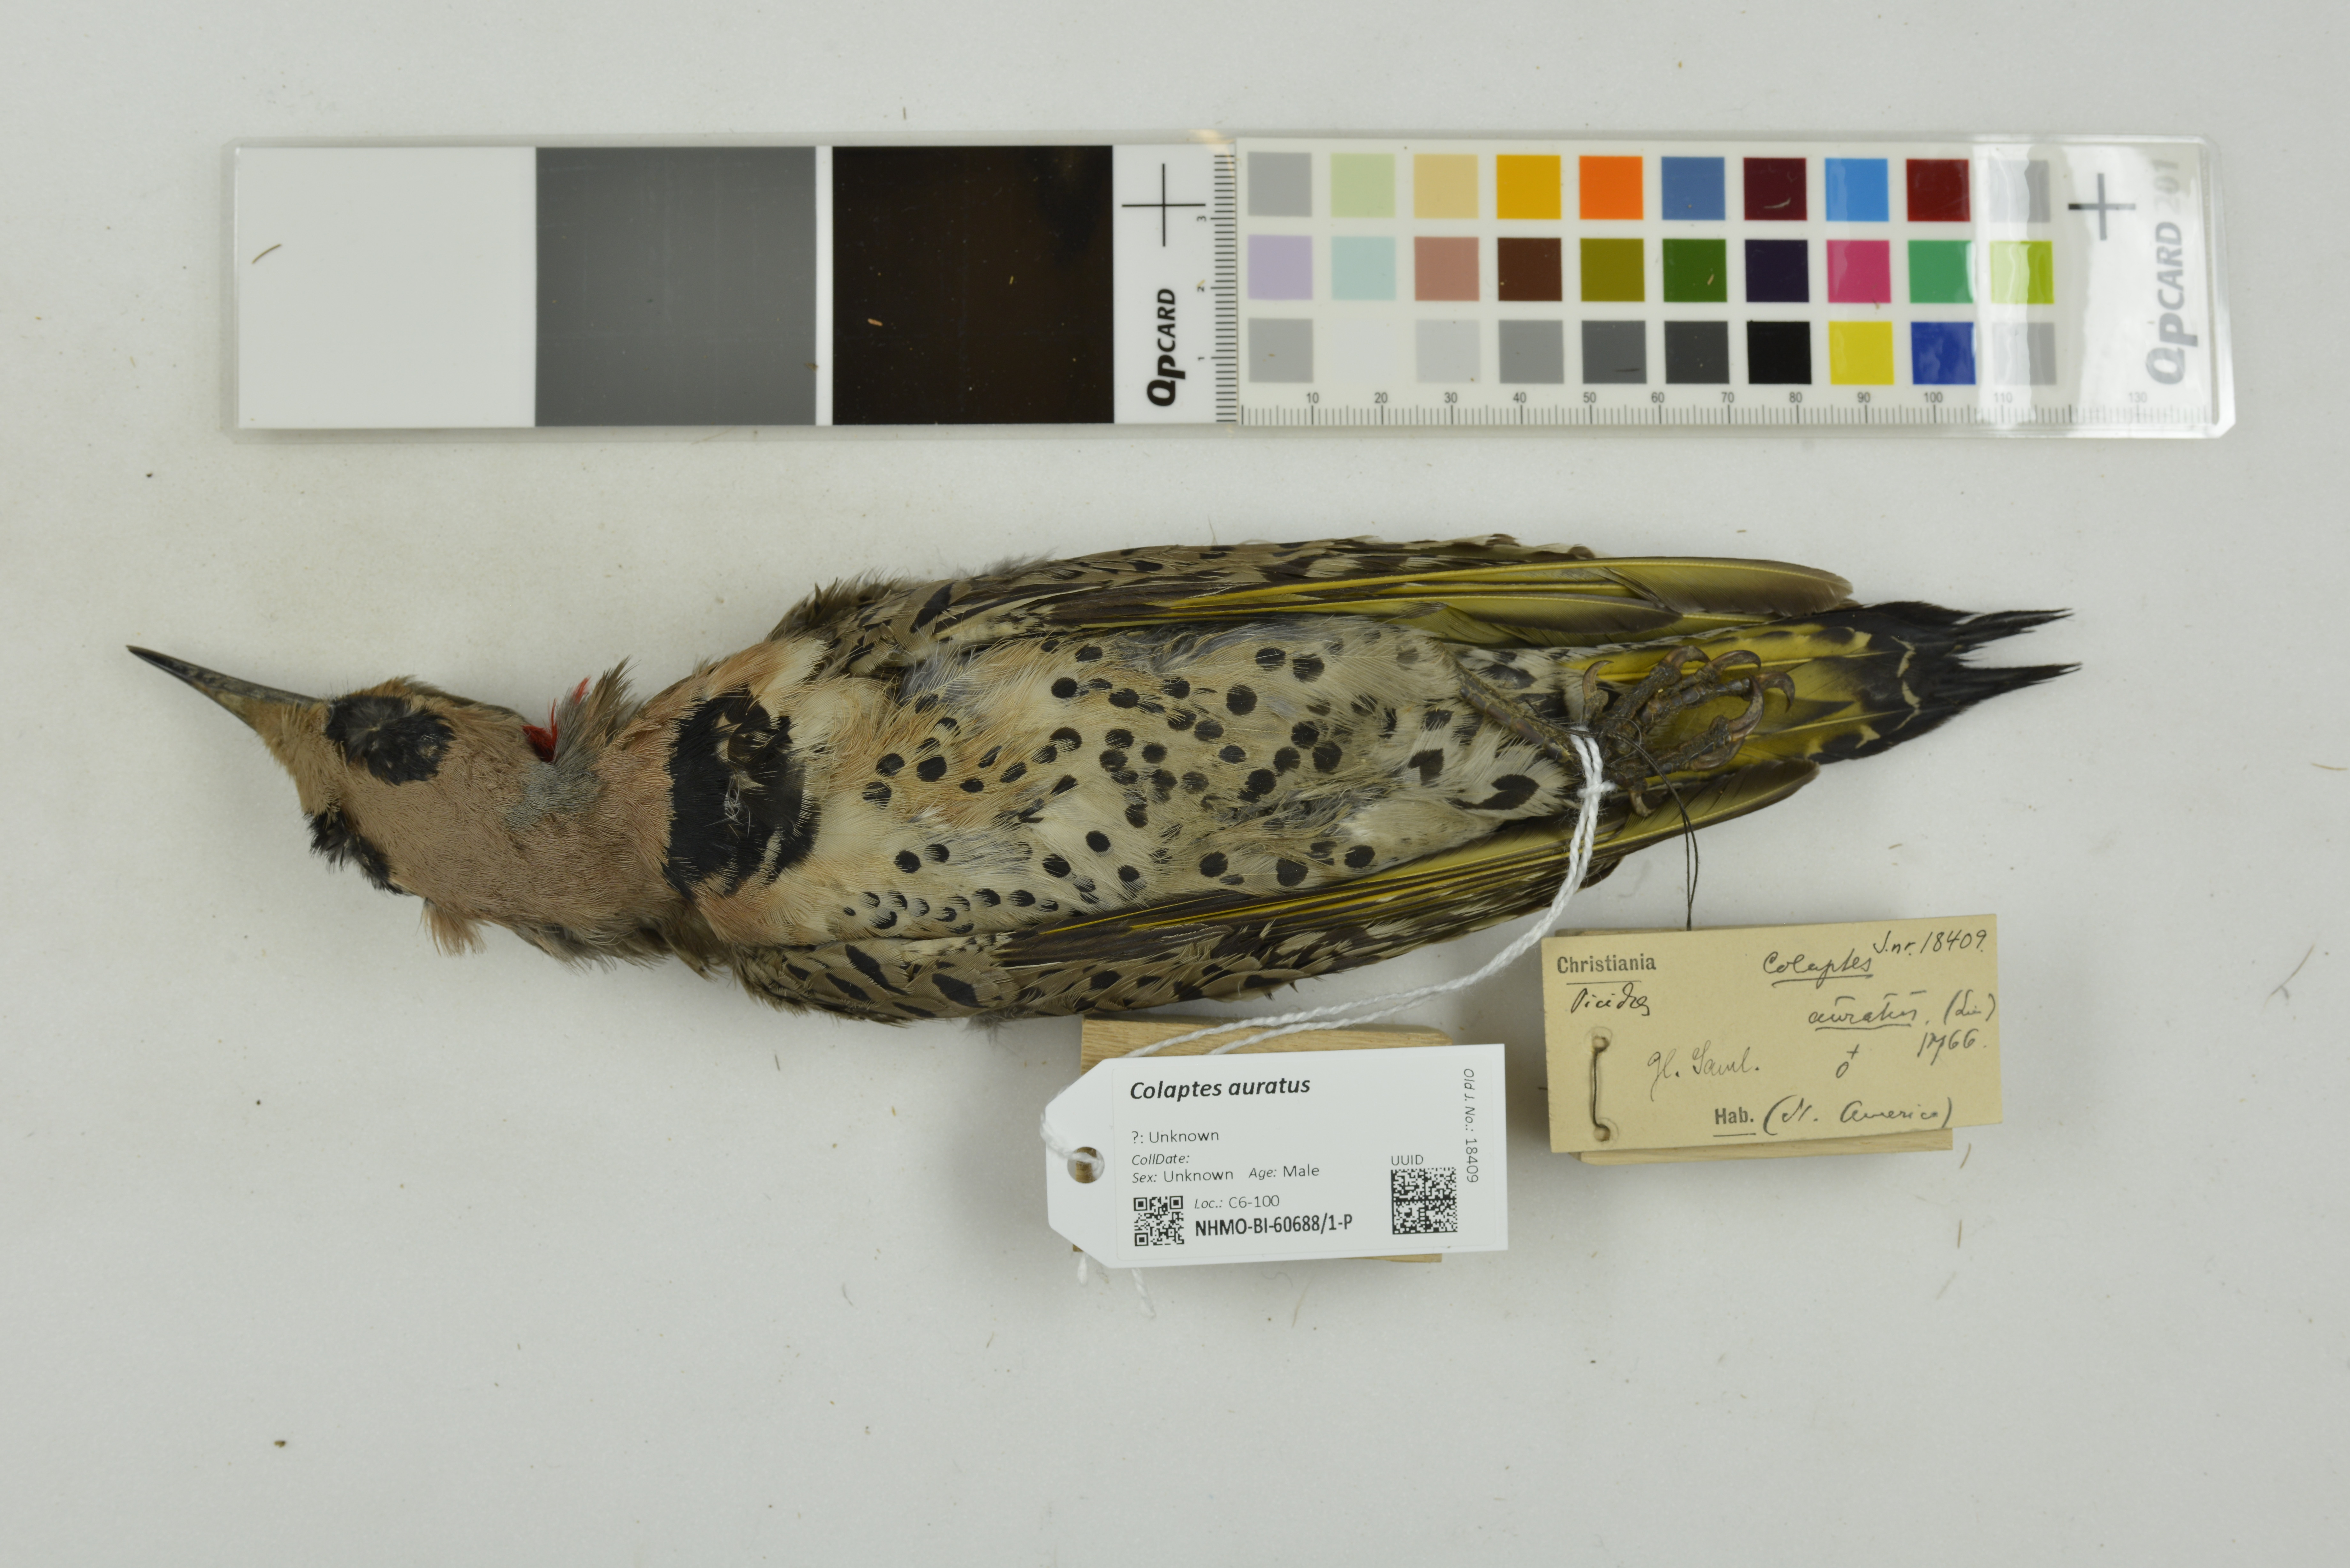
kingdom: Animalia
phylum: Chordata
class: Aves
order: Piciformes
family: Picidae
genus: Colaptes
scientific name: Colaptes auratus
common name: Northern flicker
